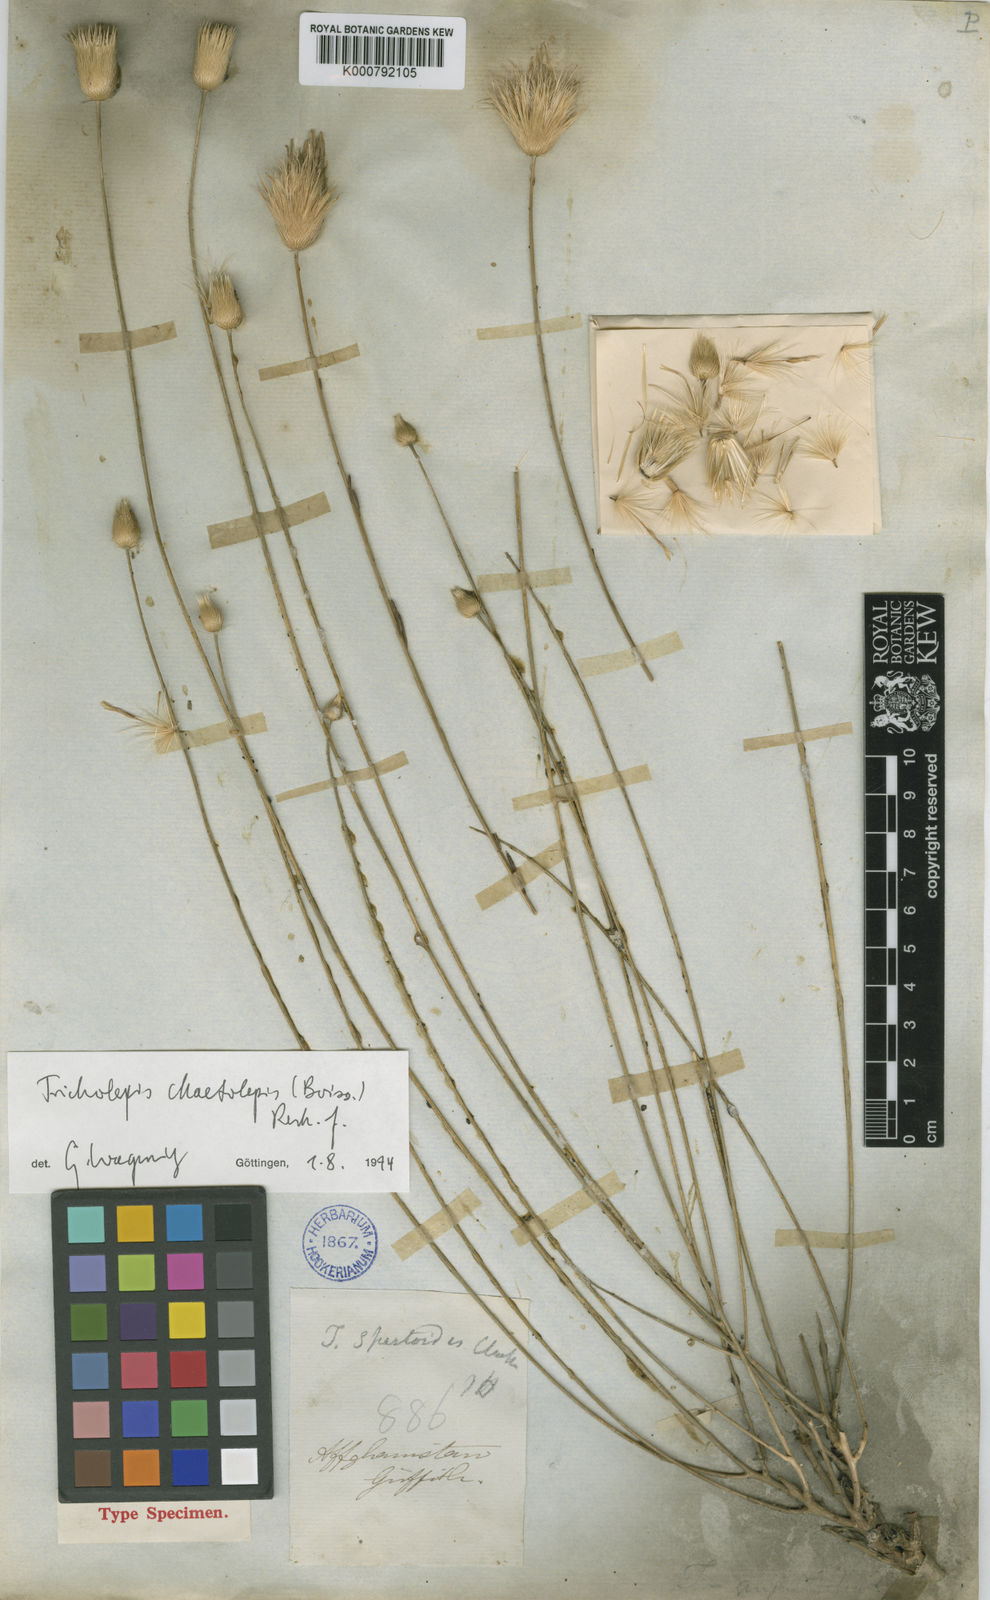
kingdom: Plantae
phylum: Tracheophyta
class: Magnoliopsida
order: Asterales
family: Asteraceae
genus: Tricholepis
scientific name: Tricholepis
